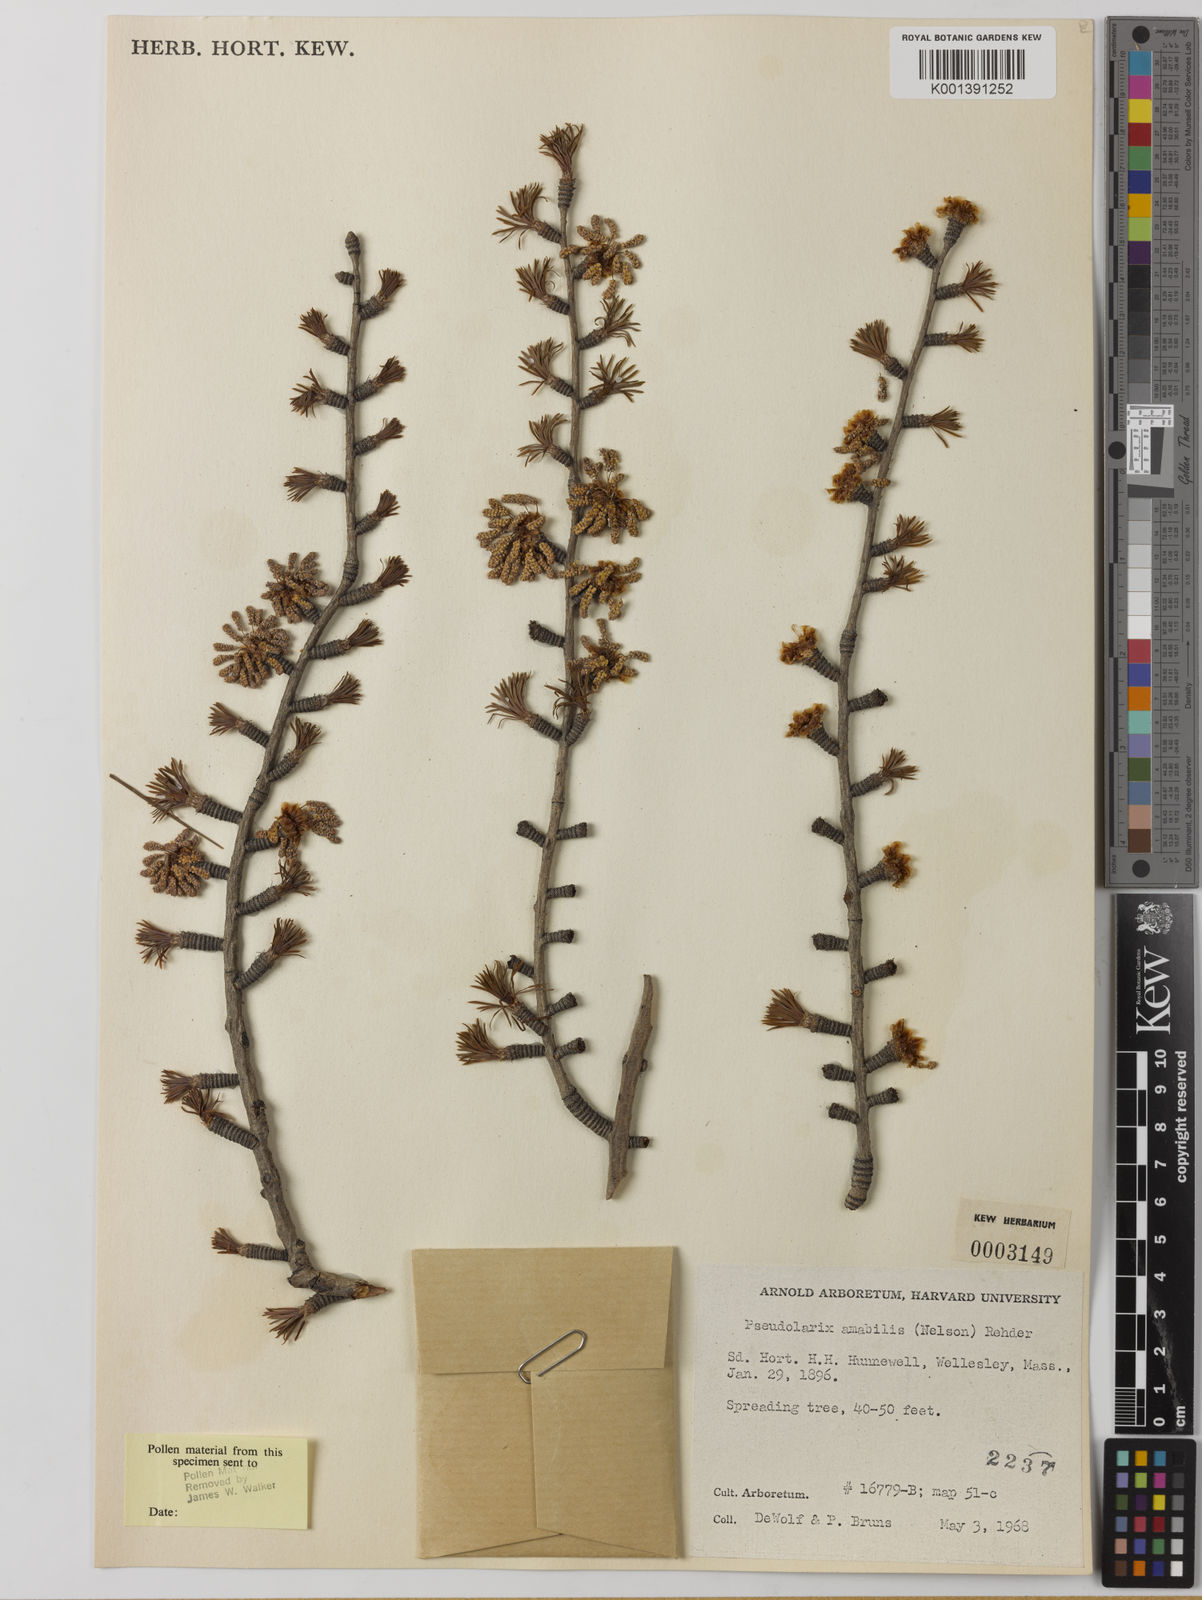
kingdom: Plantae
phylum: Tracheophyta
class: Pinopsida
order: Pinales
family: Pinaceae
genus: Pseudolarix
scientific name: Pseudolarix amabilis
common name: Chinese golden larch
